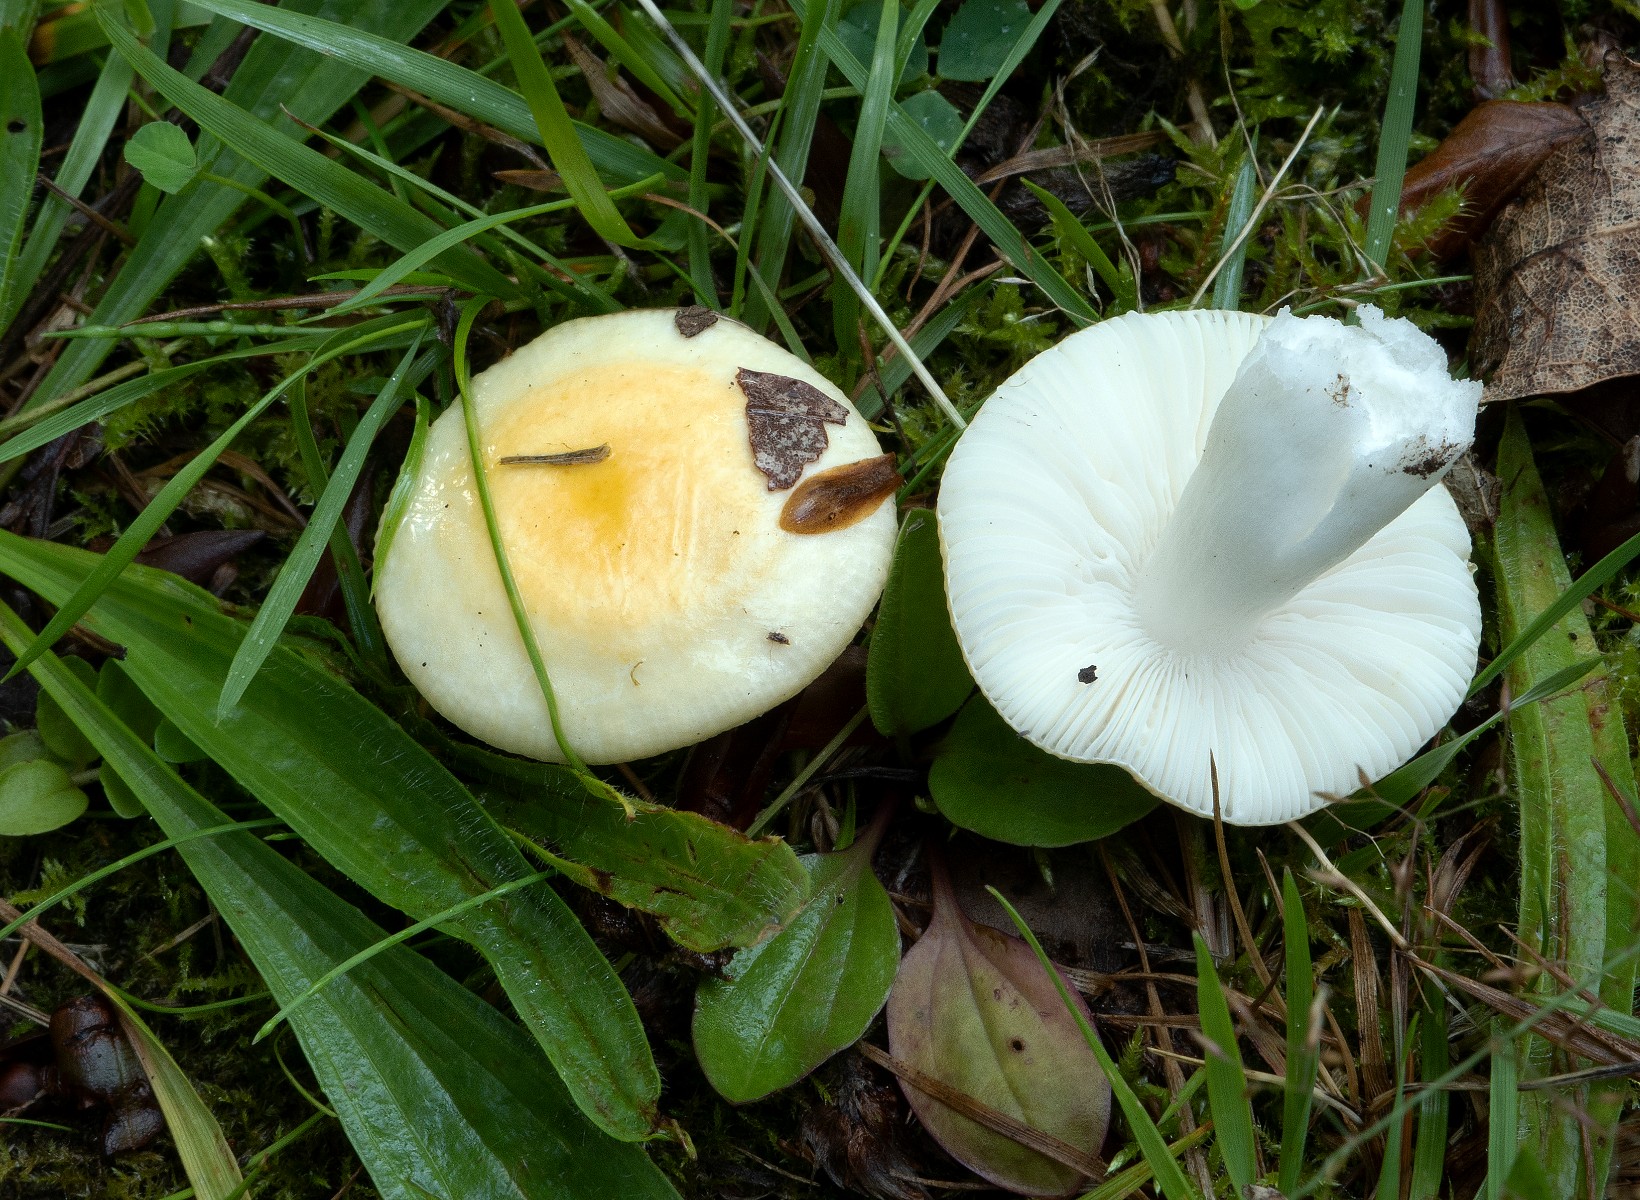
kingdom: Fungi
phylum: Basidiomycota
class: Agaricomycetes
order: Russulales
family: Russulaceae
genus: Russula
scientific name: Russula solaris
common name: sol-skørhat
